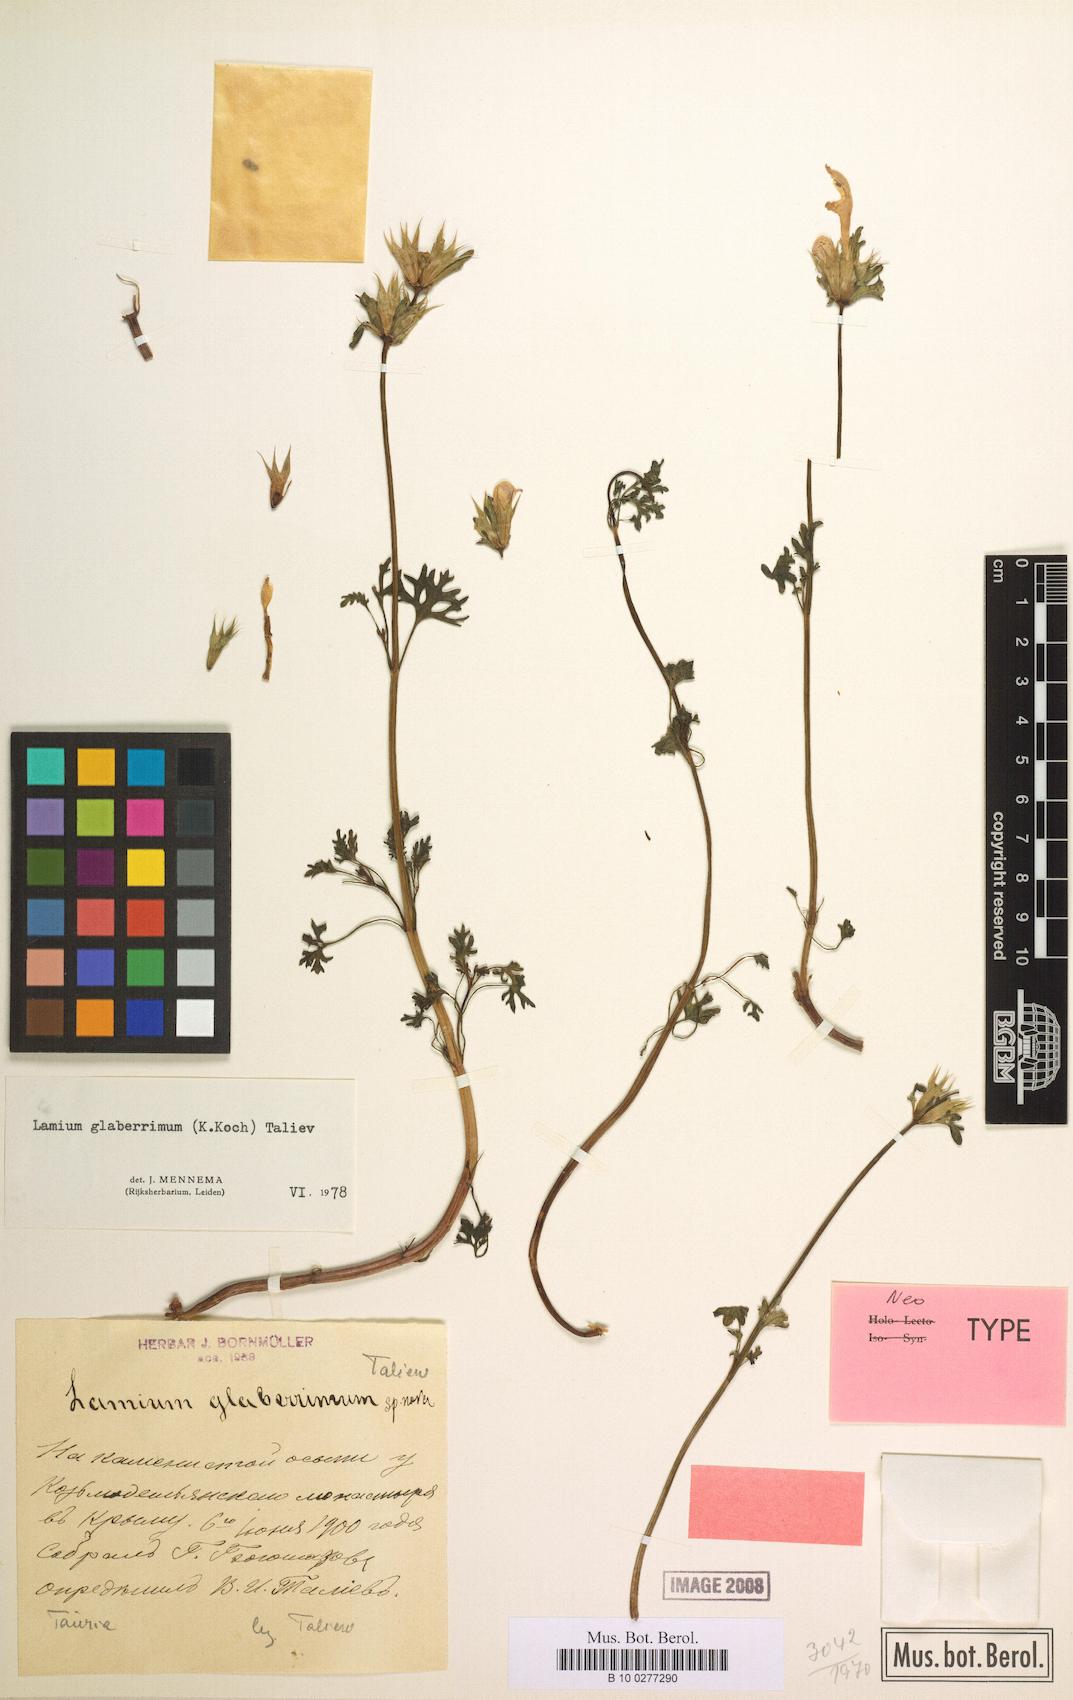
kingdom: Plantae
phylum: Tracheophyta
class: Magnoliopsida
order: Lamiales
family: Lamiaceae
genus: Lamium
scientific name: Lamium glaberrimum
